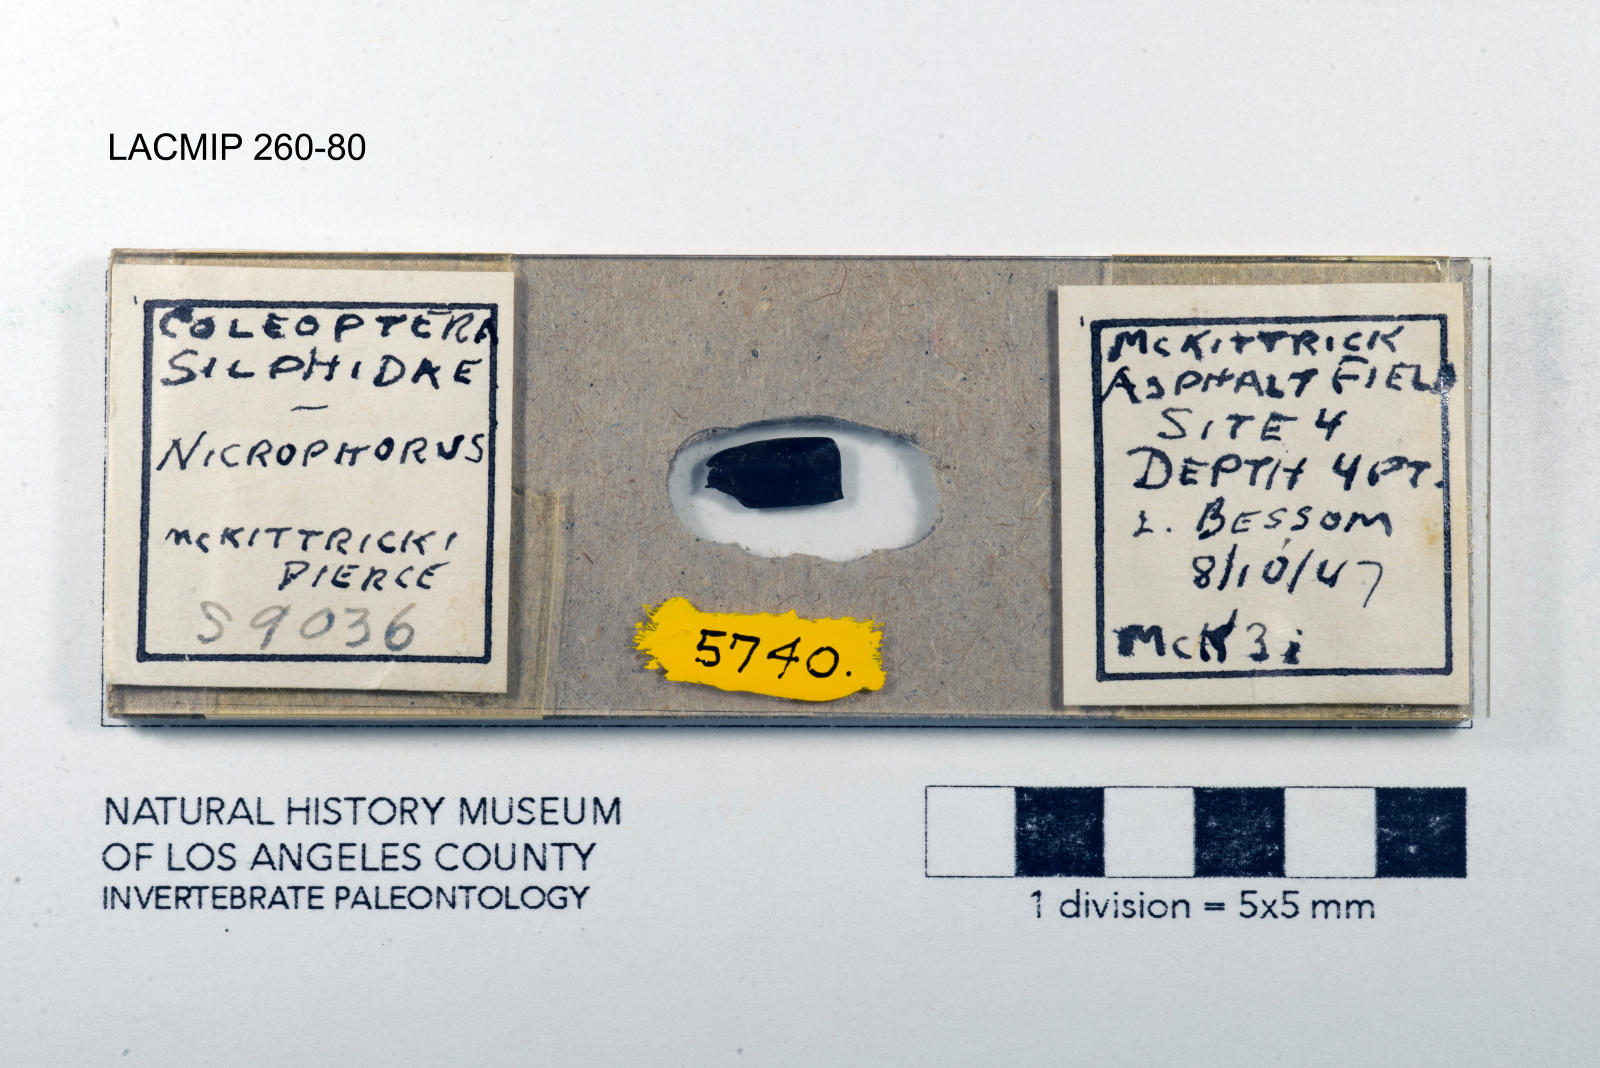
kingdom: Animalia
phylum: Arthropoda
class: Insecta
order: Coleoptera
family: Staphylinidae
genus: Nicrophorus
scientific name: Nicrophorus marginatus
